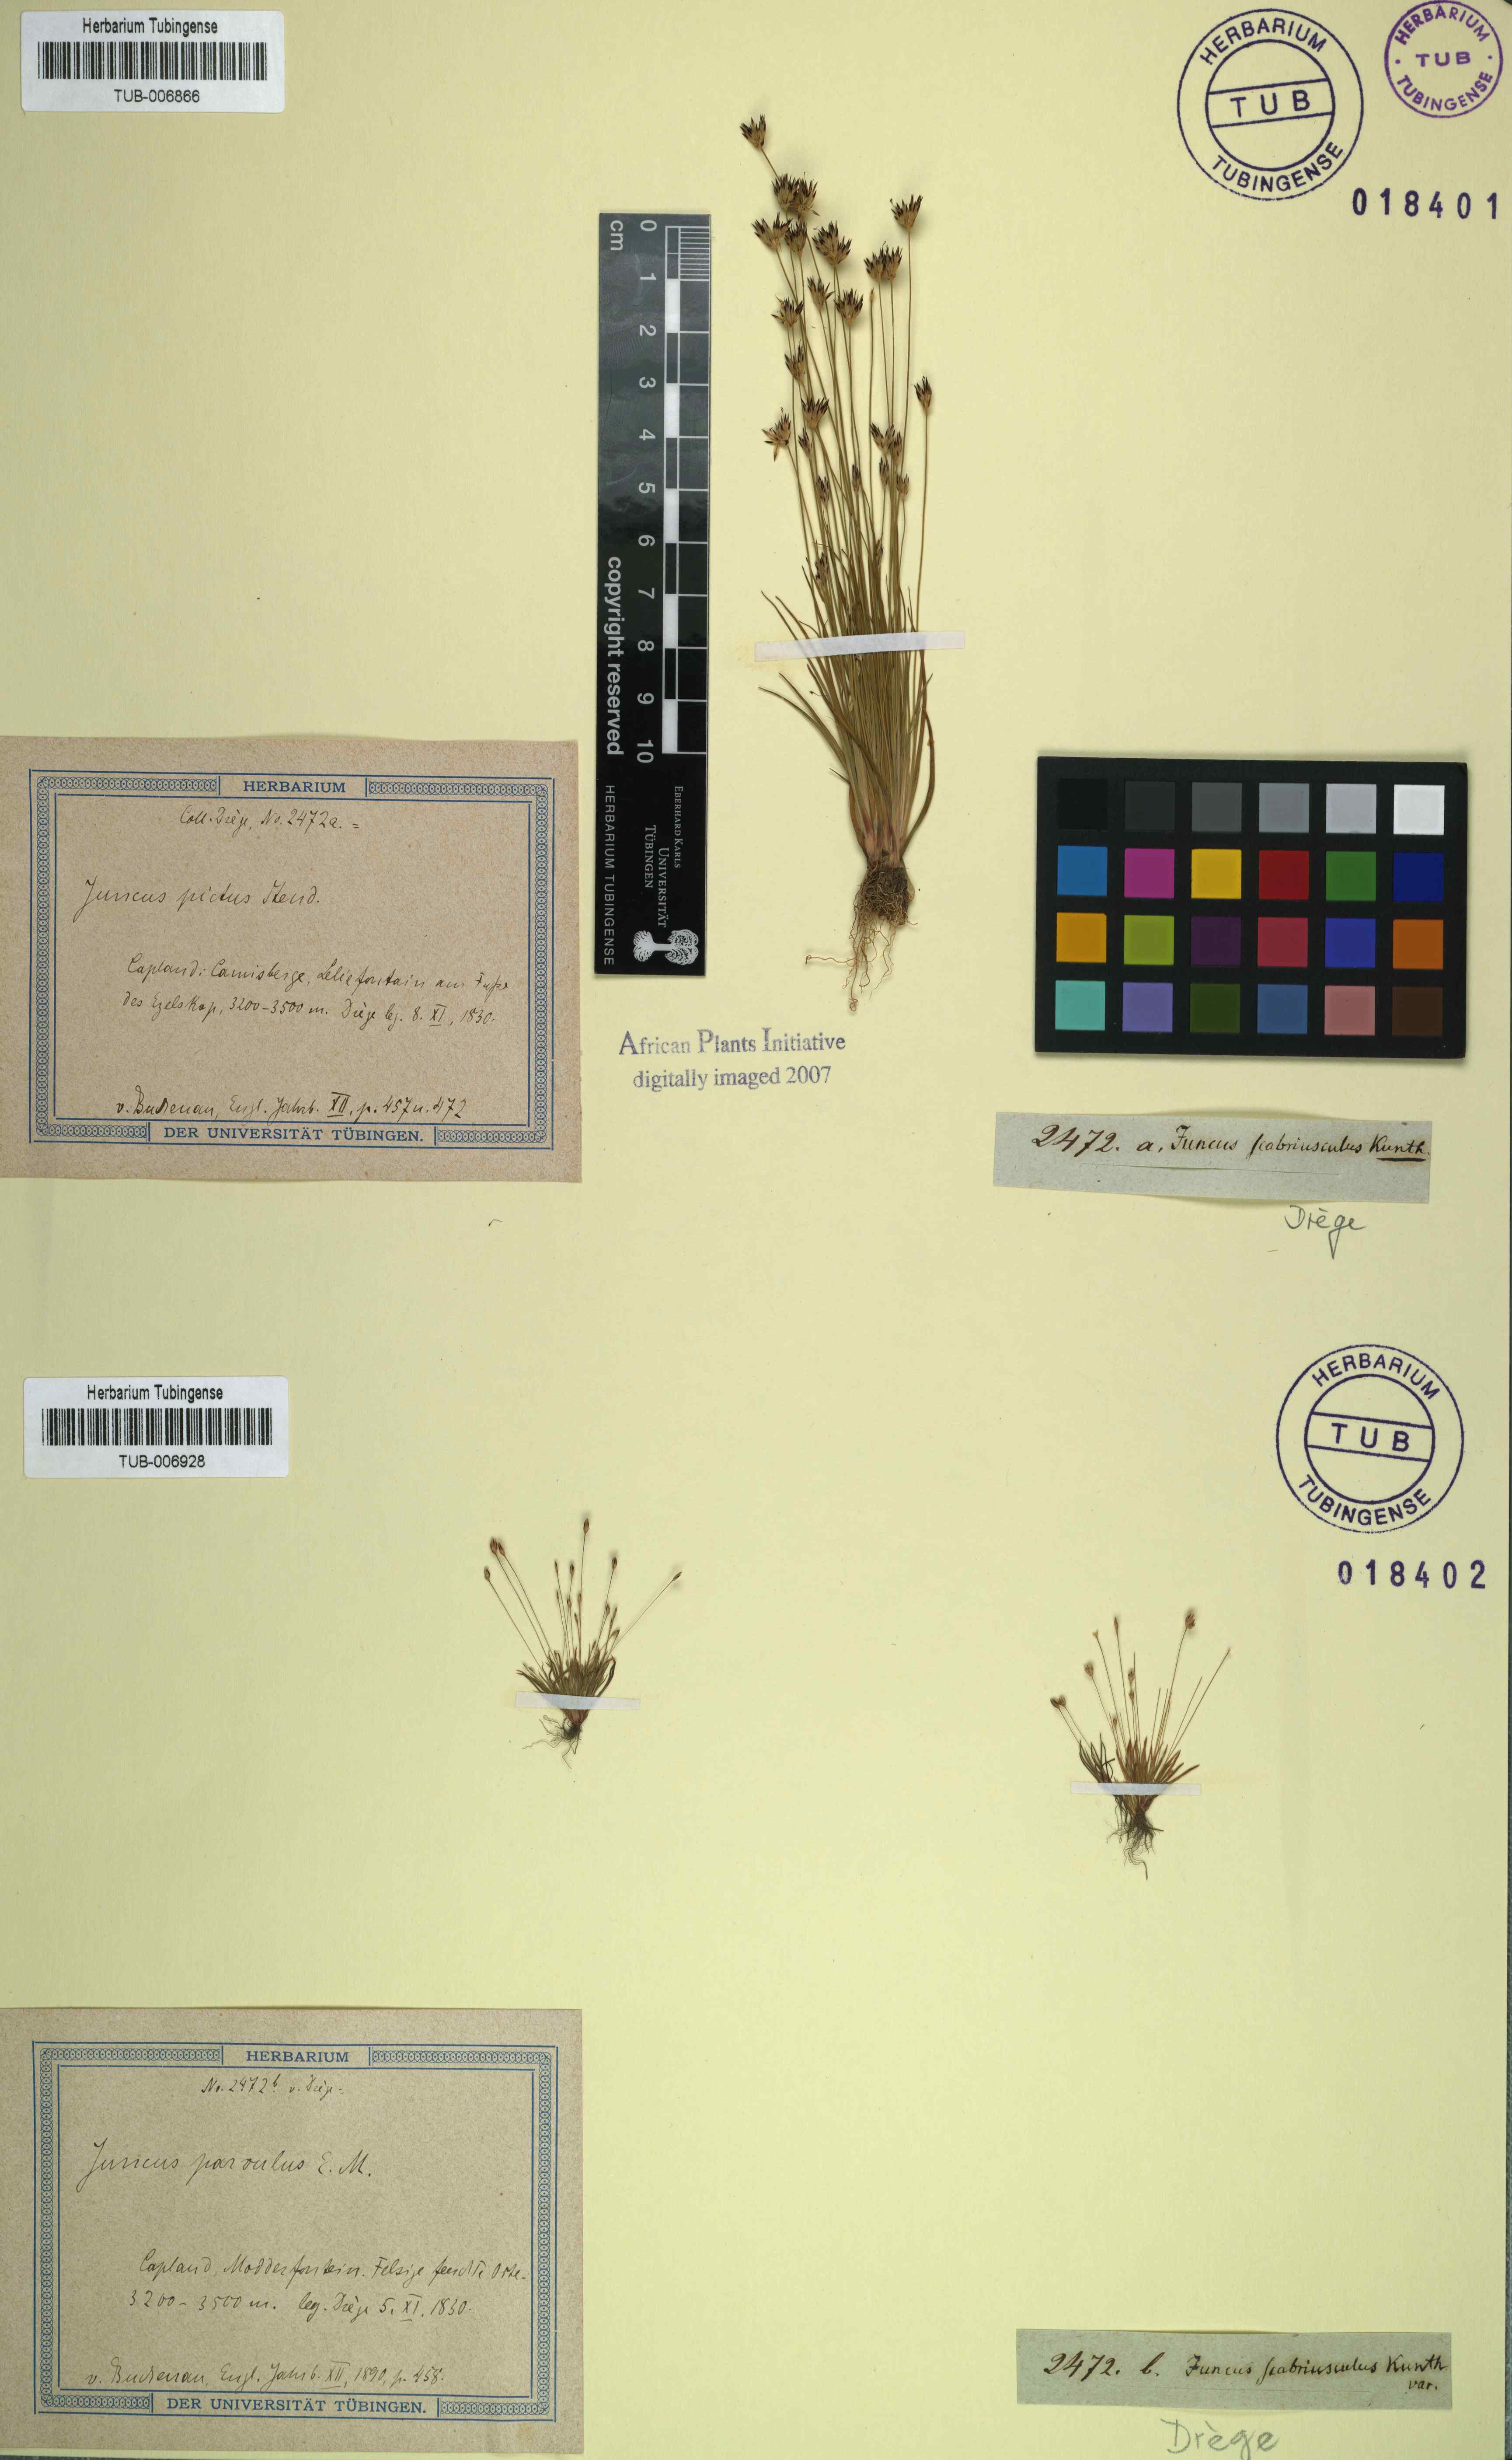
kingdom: Plantae
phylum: Tracheophyta
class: Liliopsida
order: Poales
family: Juncaceae
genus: Juncus
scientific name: Juncus scabriusculus
